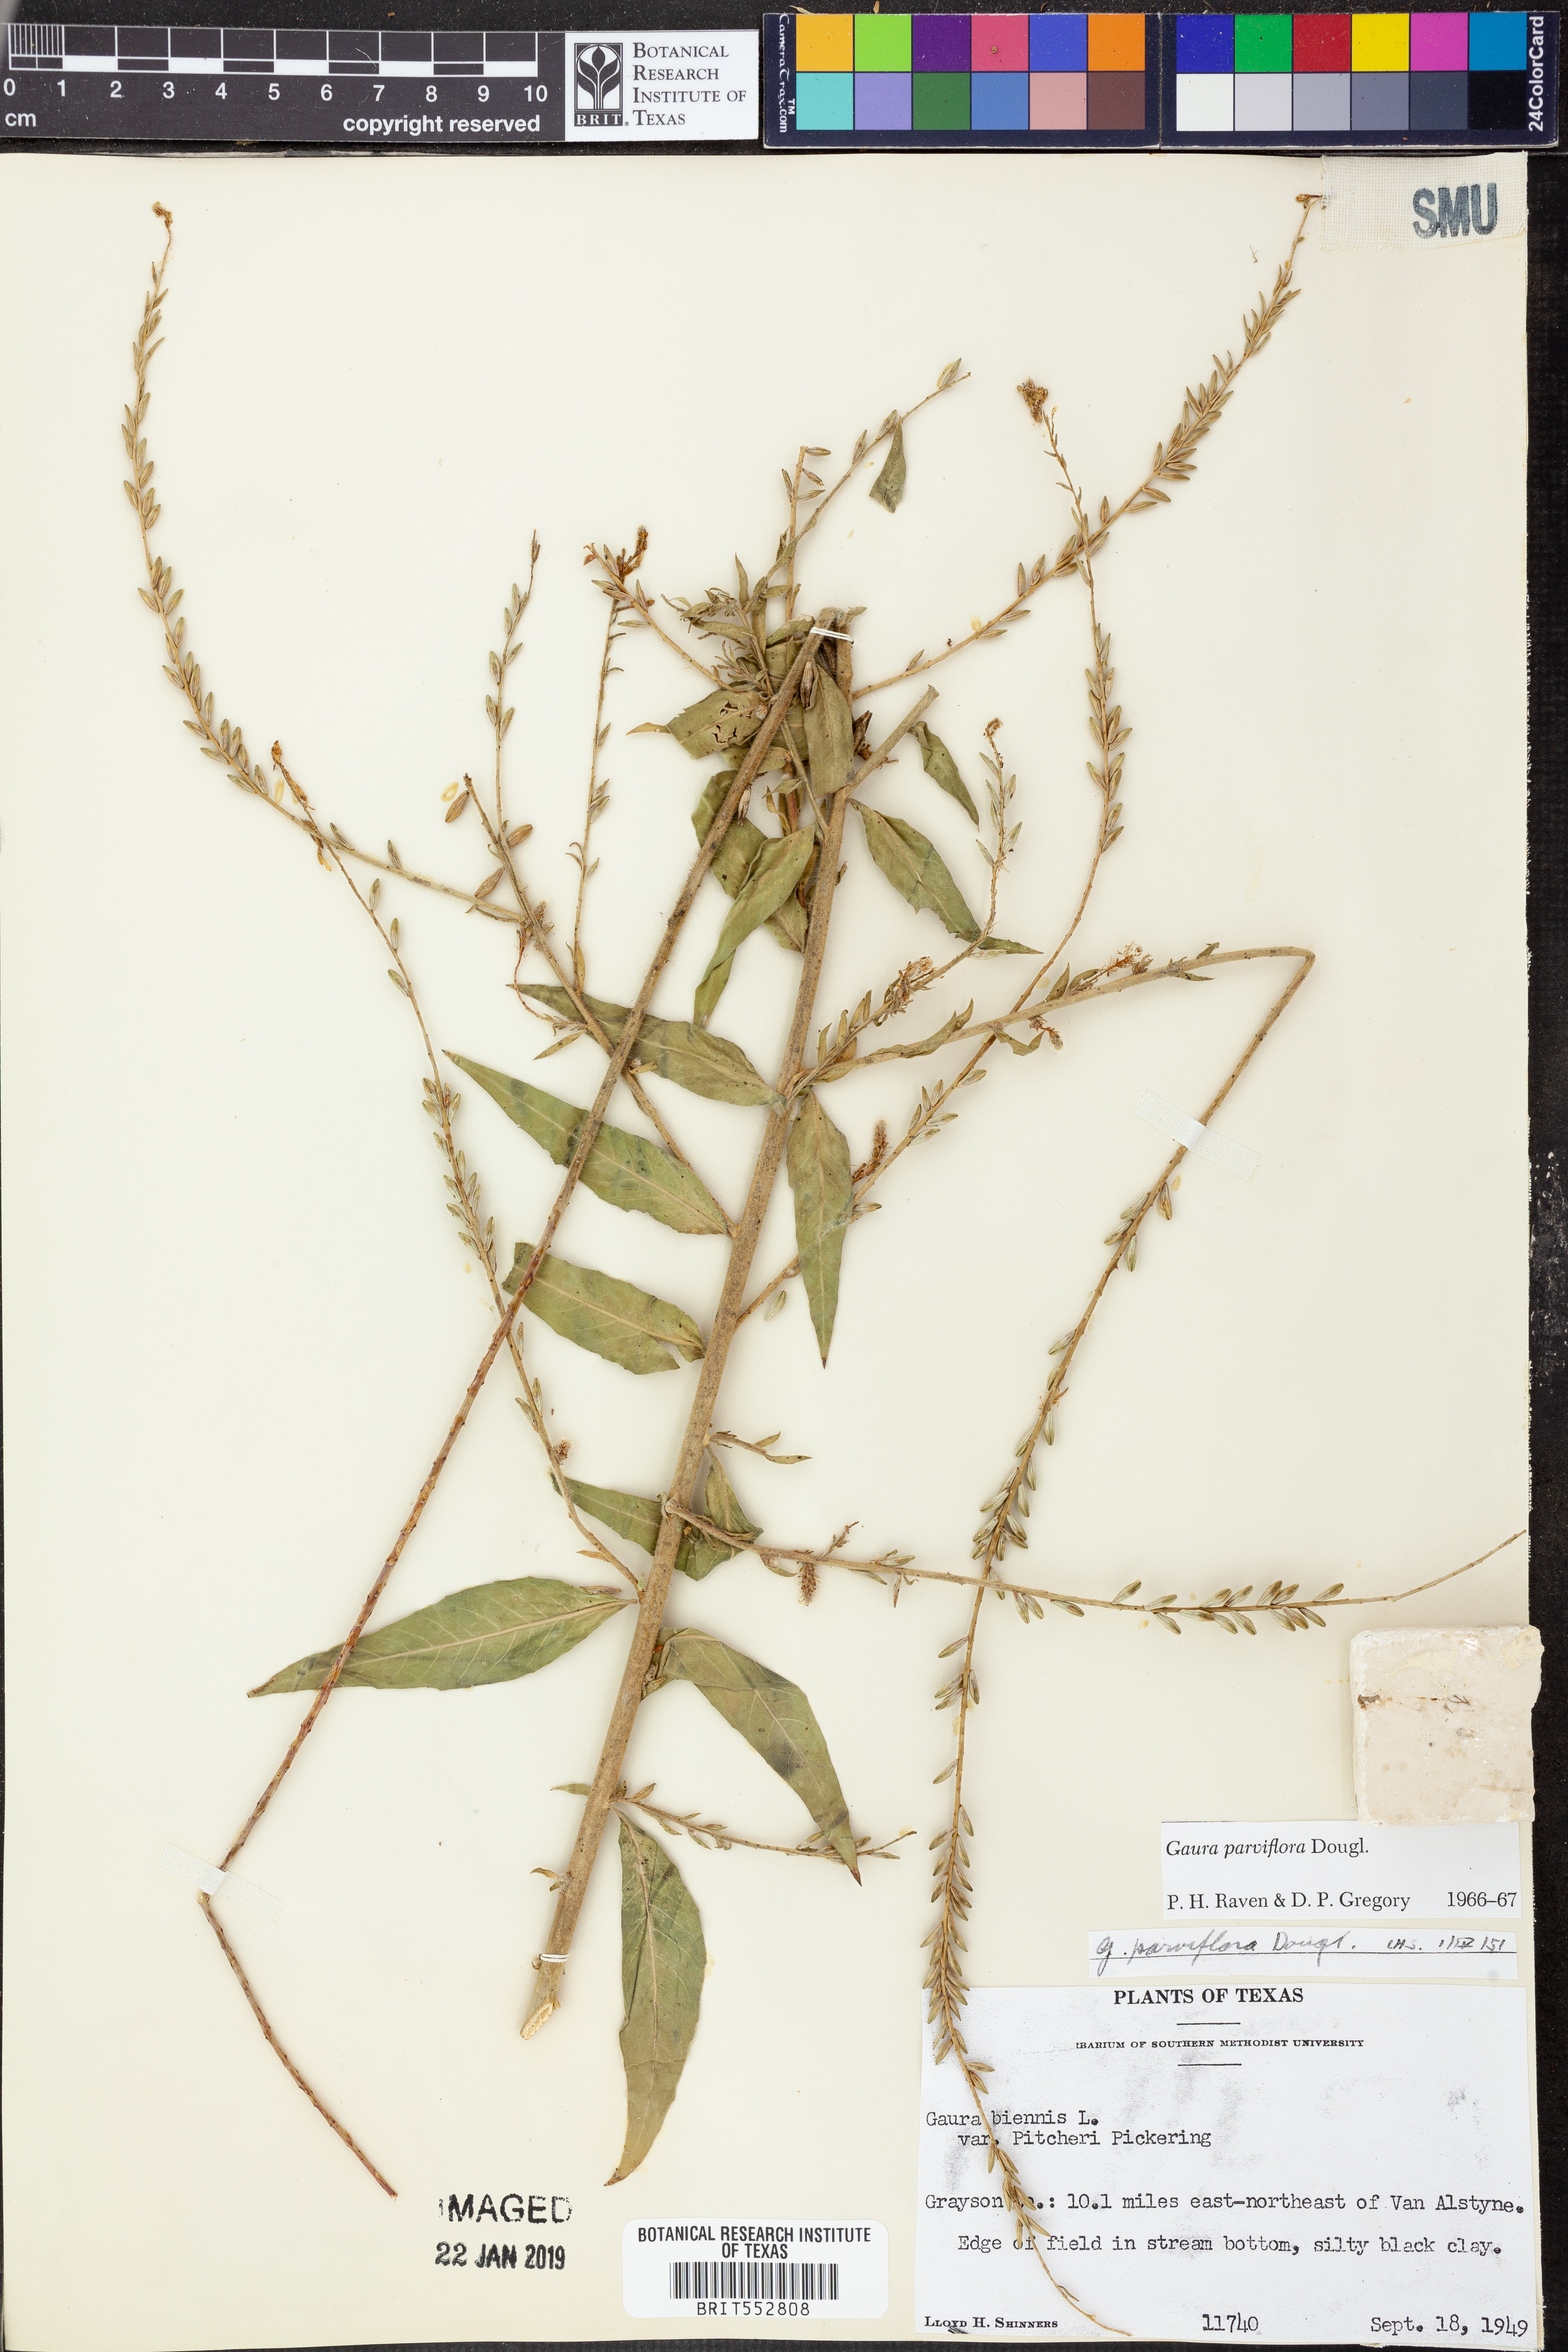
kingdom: Plantae
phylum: Tracheophyta
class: Magnoliopsida
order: Myrtales
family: Onagraceae
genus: Oenothera
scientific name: Oenothera curtiflora
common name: Velvetweed
